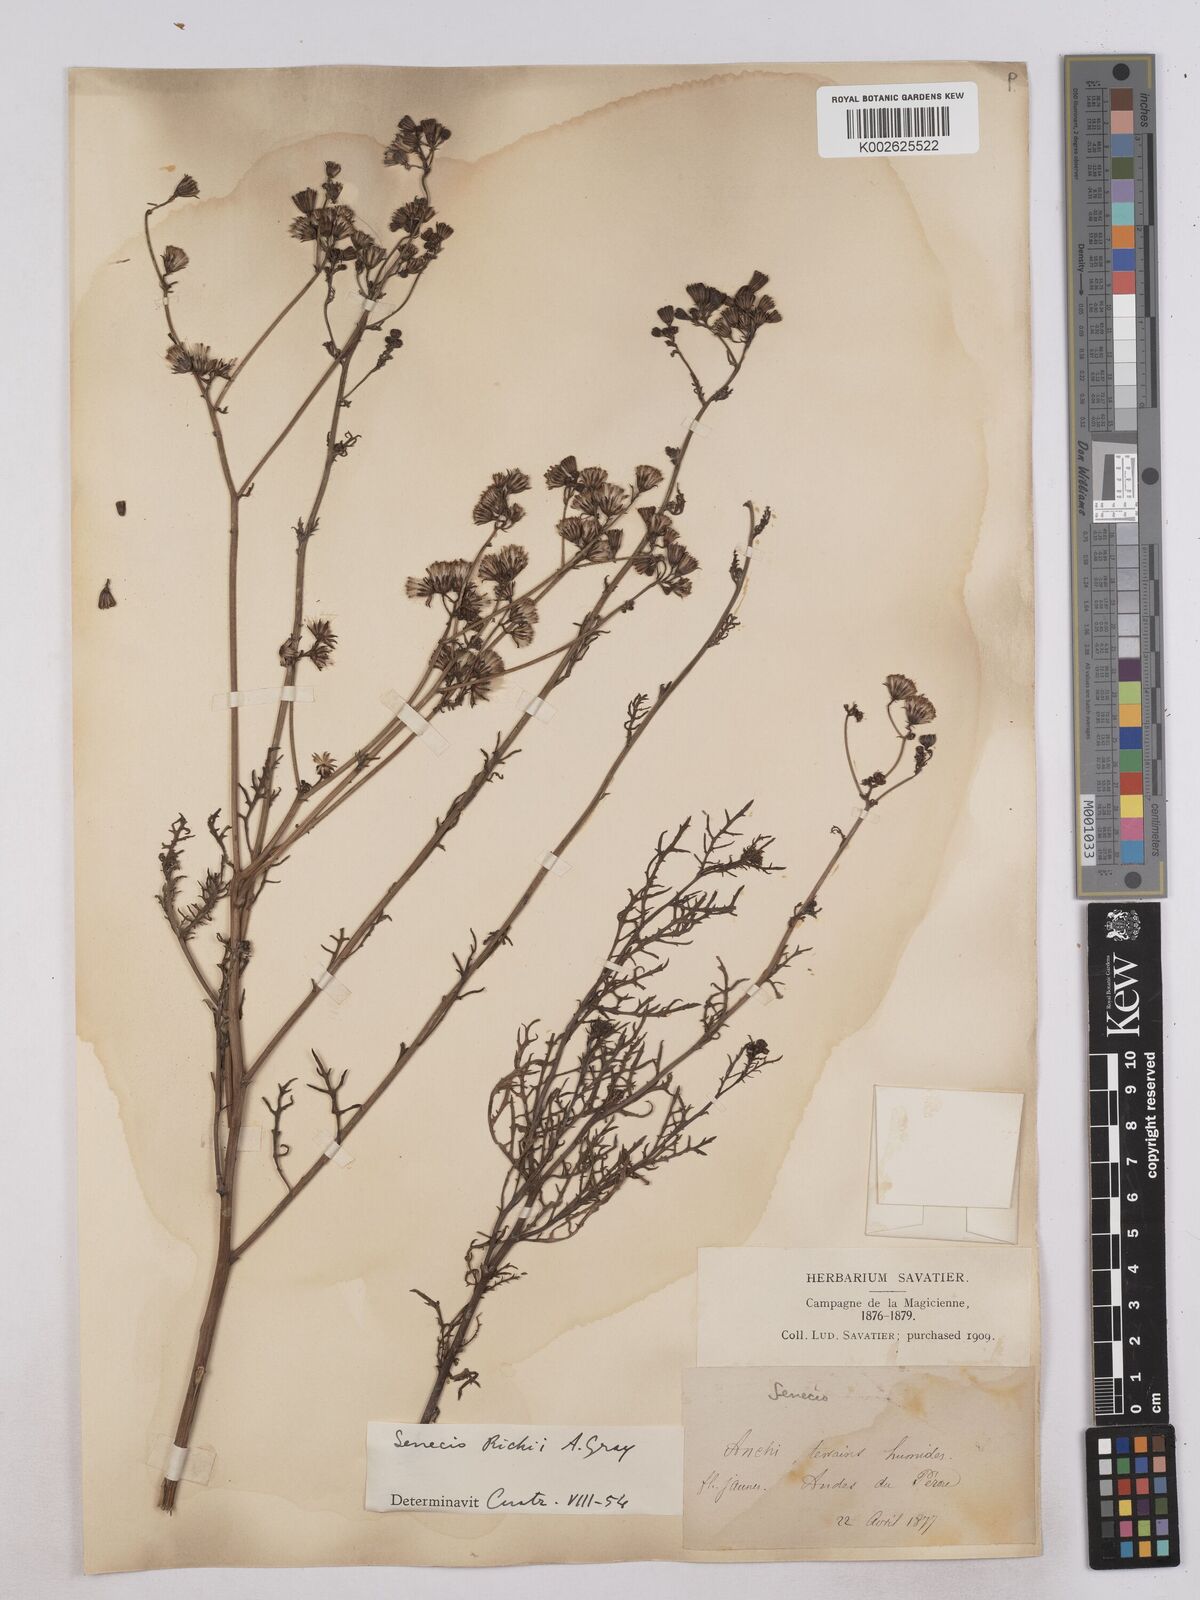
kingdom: Plantae
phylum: Tracheophyta
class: Magnoliopsida
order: Asterales
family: Asteraceae
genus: Senecio
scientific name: Senecio richii
